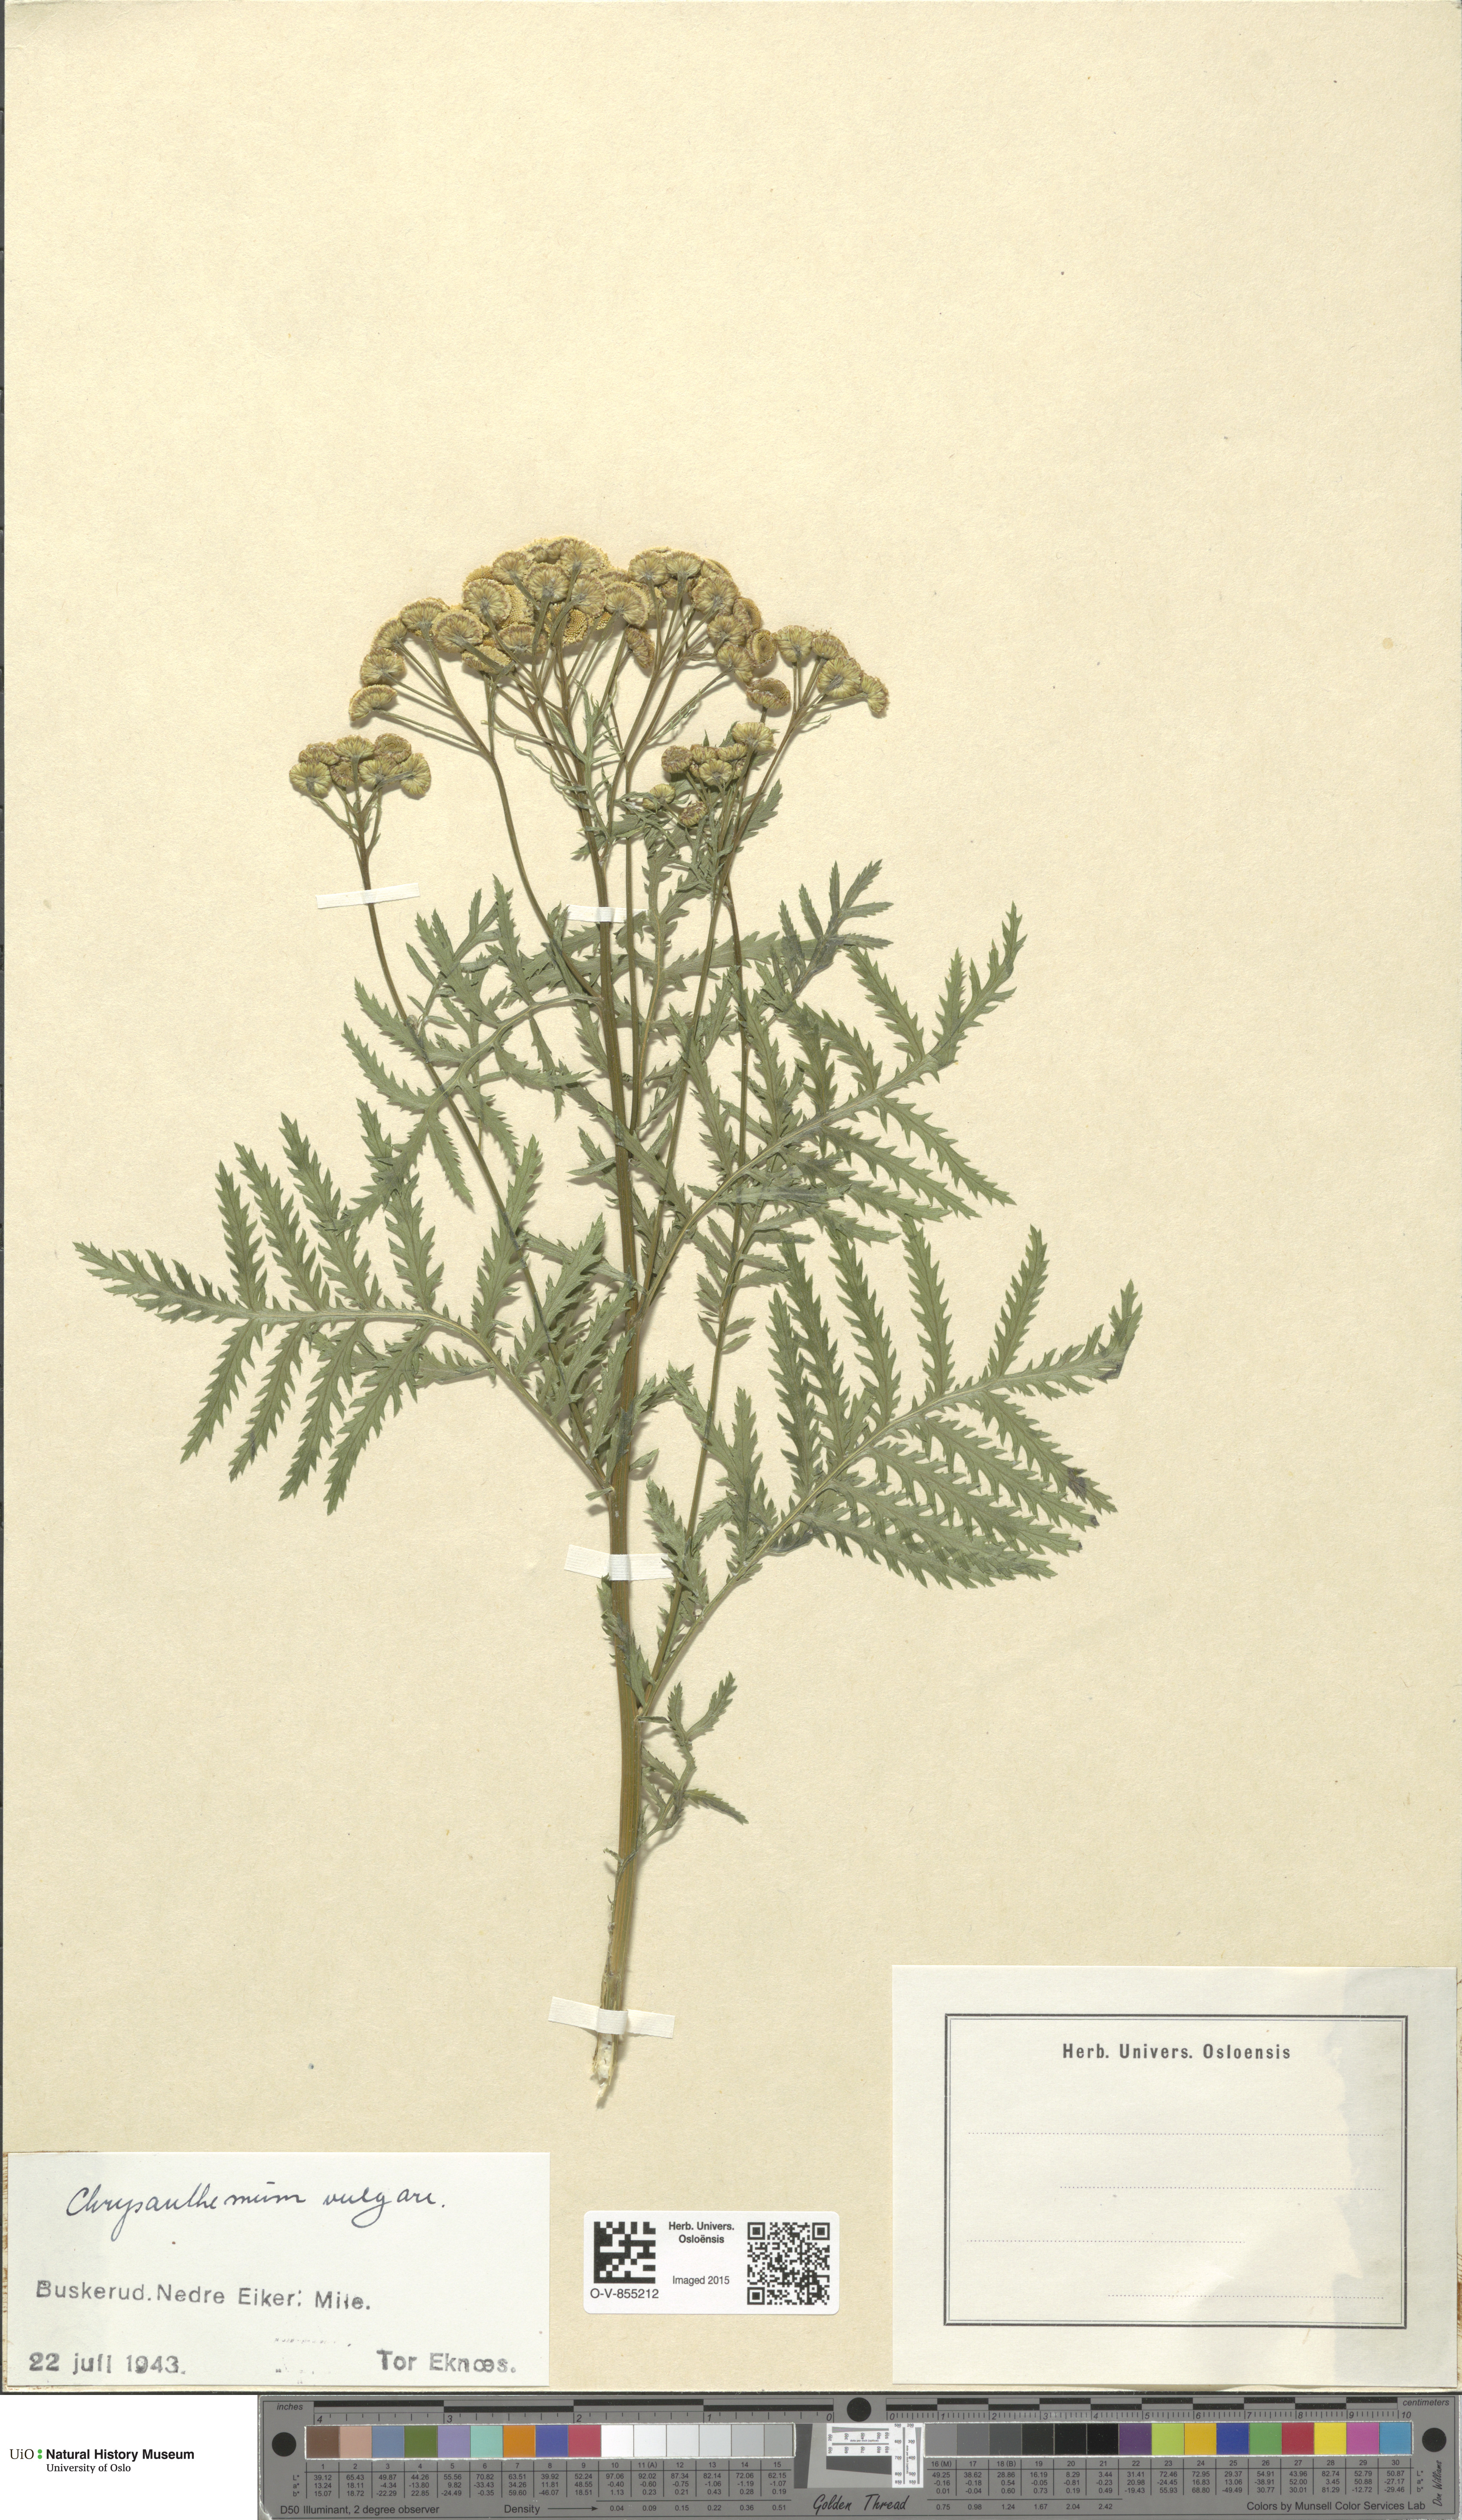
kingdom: Plantae
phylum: Tracheophyta
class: Magnoliopsida
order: Asterales
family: Asteraceae
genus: Tanacetum
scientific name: Tanacetum vulgare
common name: Common tansy
